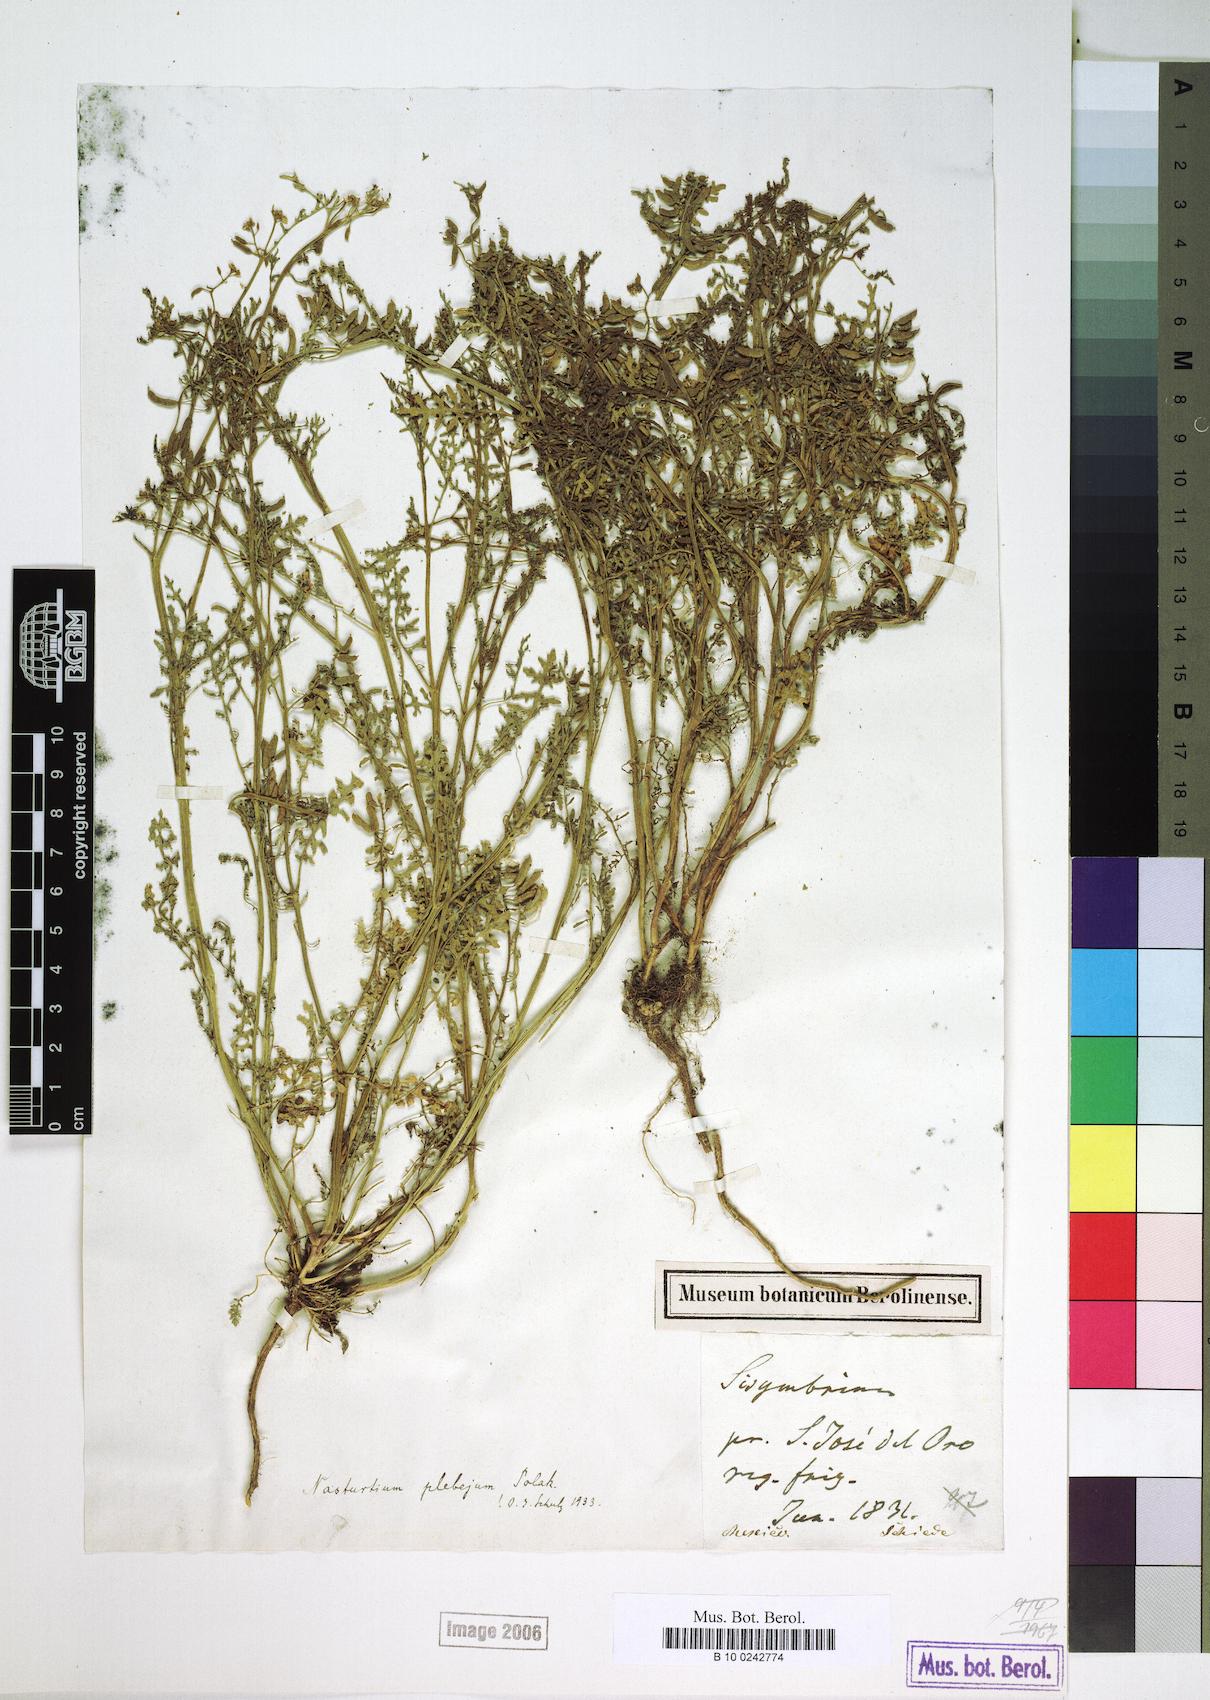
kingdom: Plantae
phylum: Tracheophyta
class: Magnoliopsida
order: Brassicales
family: Brassicaceae
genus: Rorippa
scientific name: Rorippa mexicana
